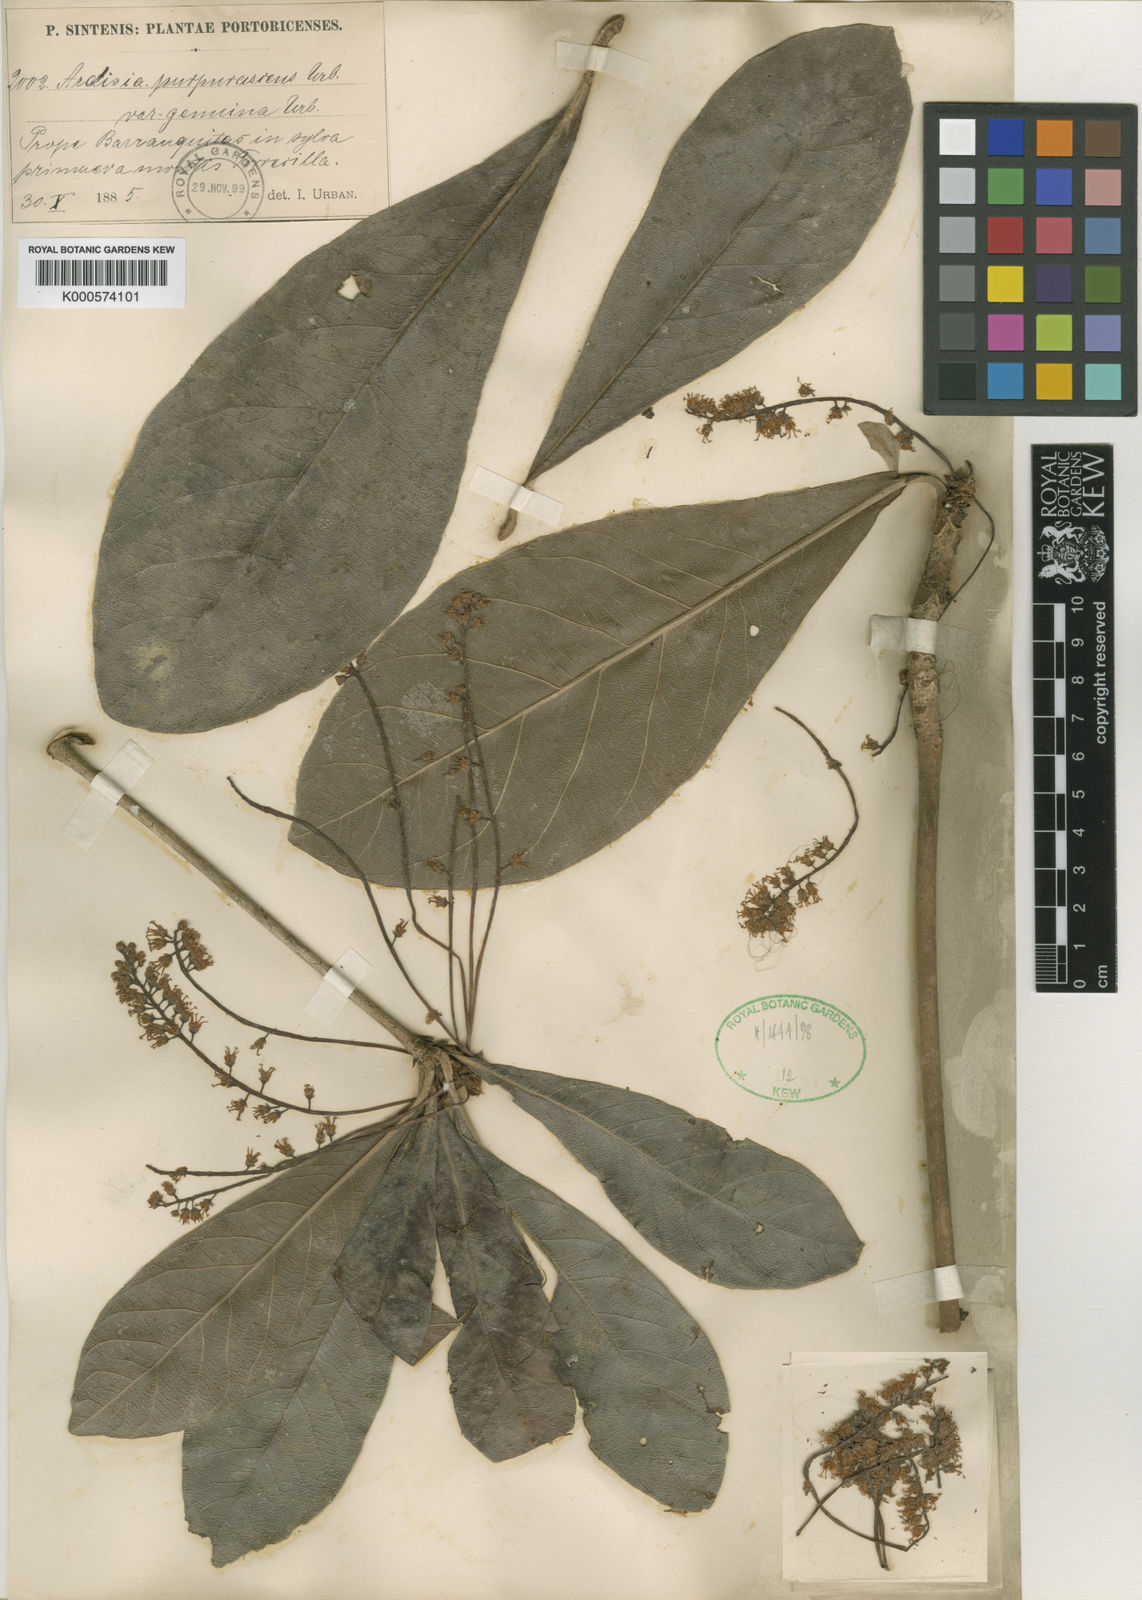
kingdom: Plantae
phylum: Tracheophyta
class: Magnoliopsida
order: Ericales
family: Primulaceae
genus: Cybianthus
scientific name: Cybianthus
